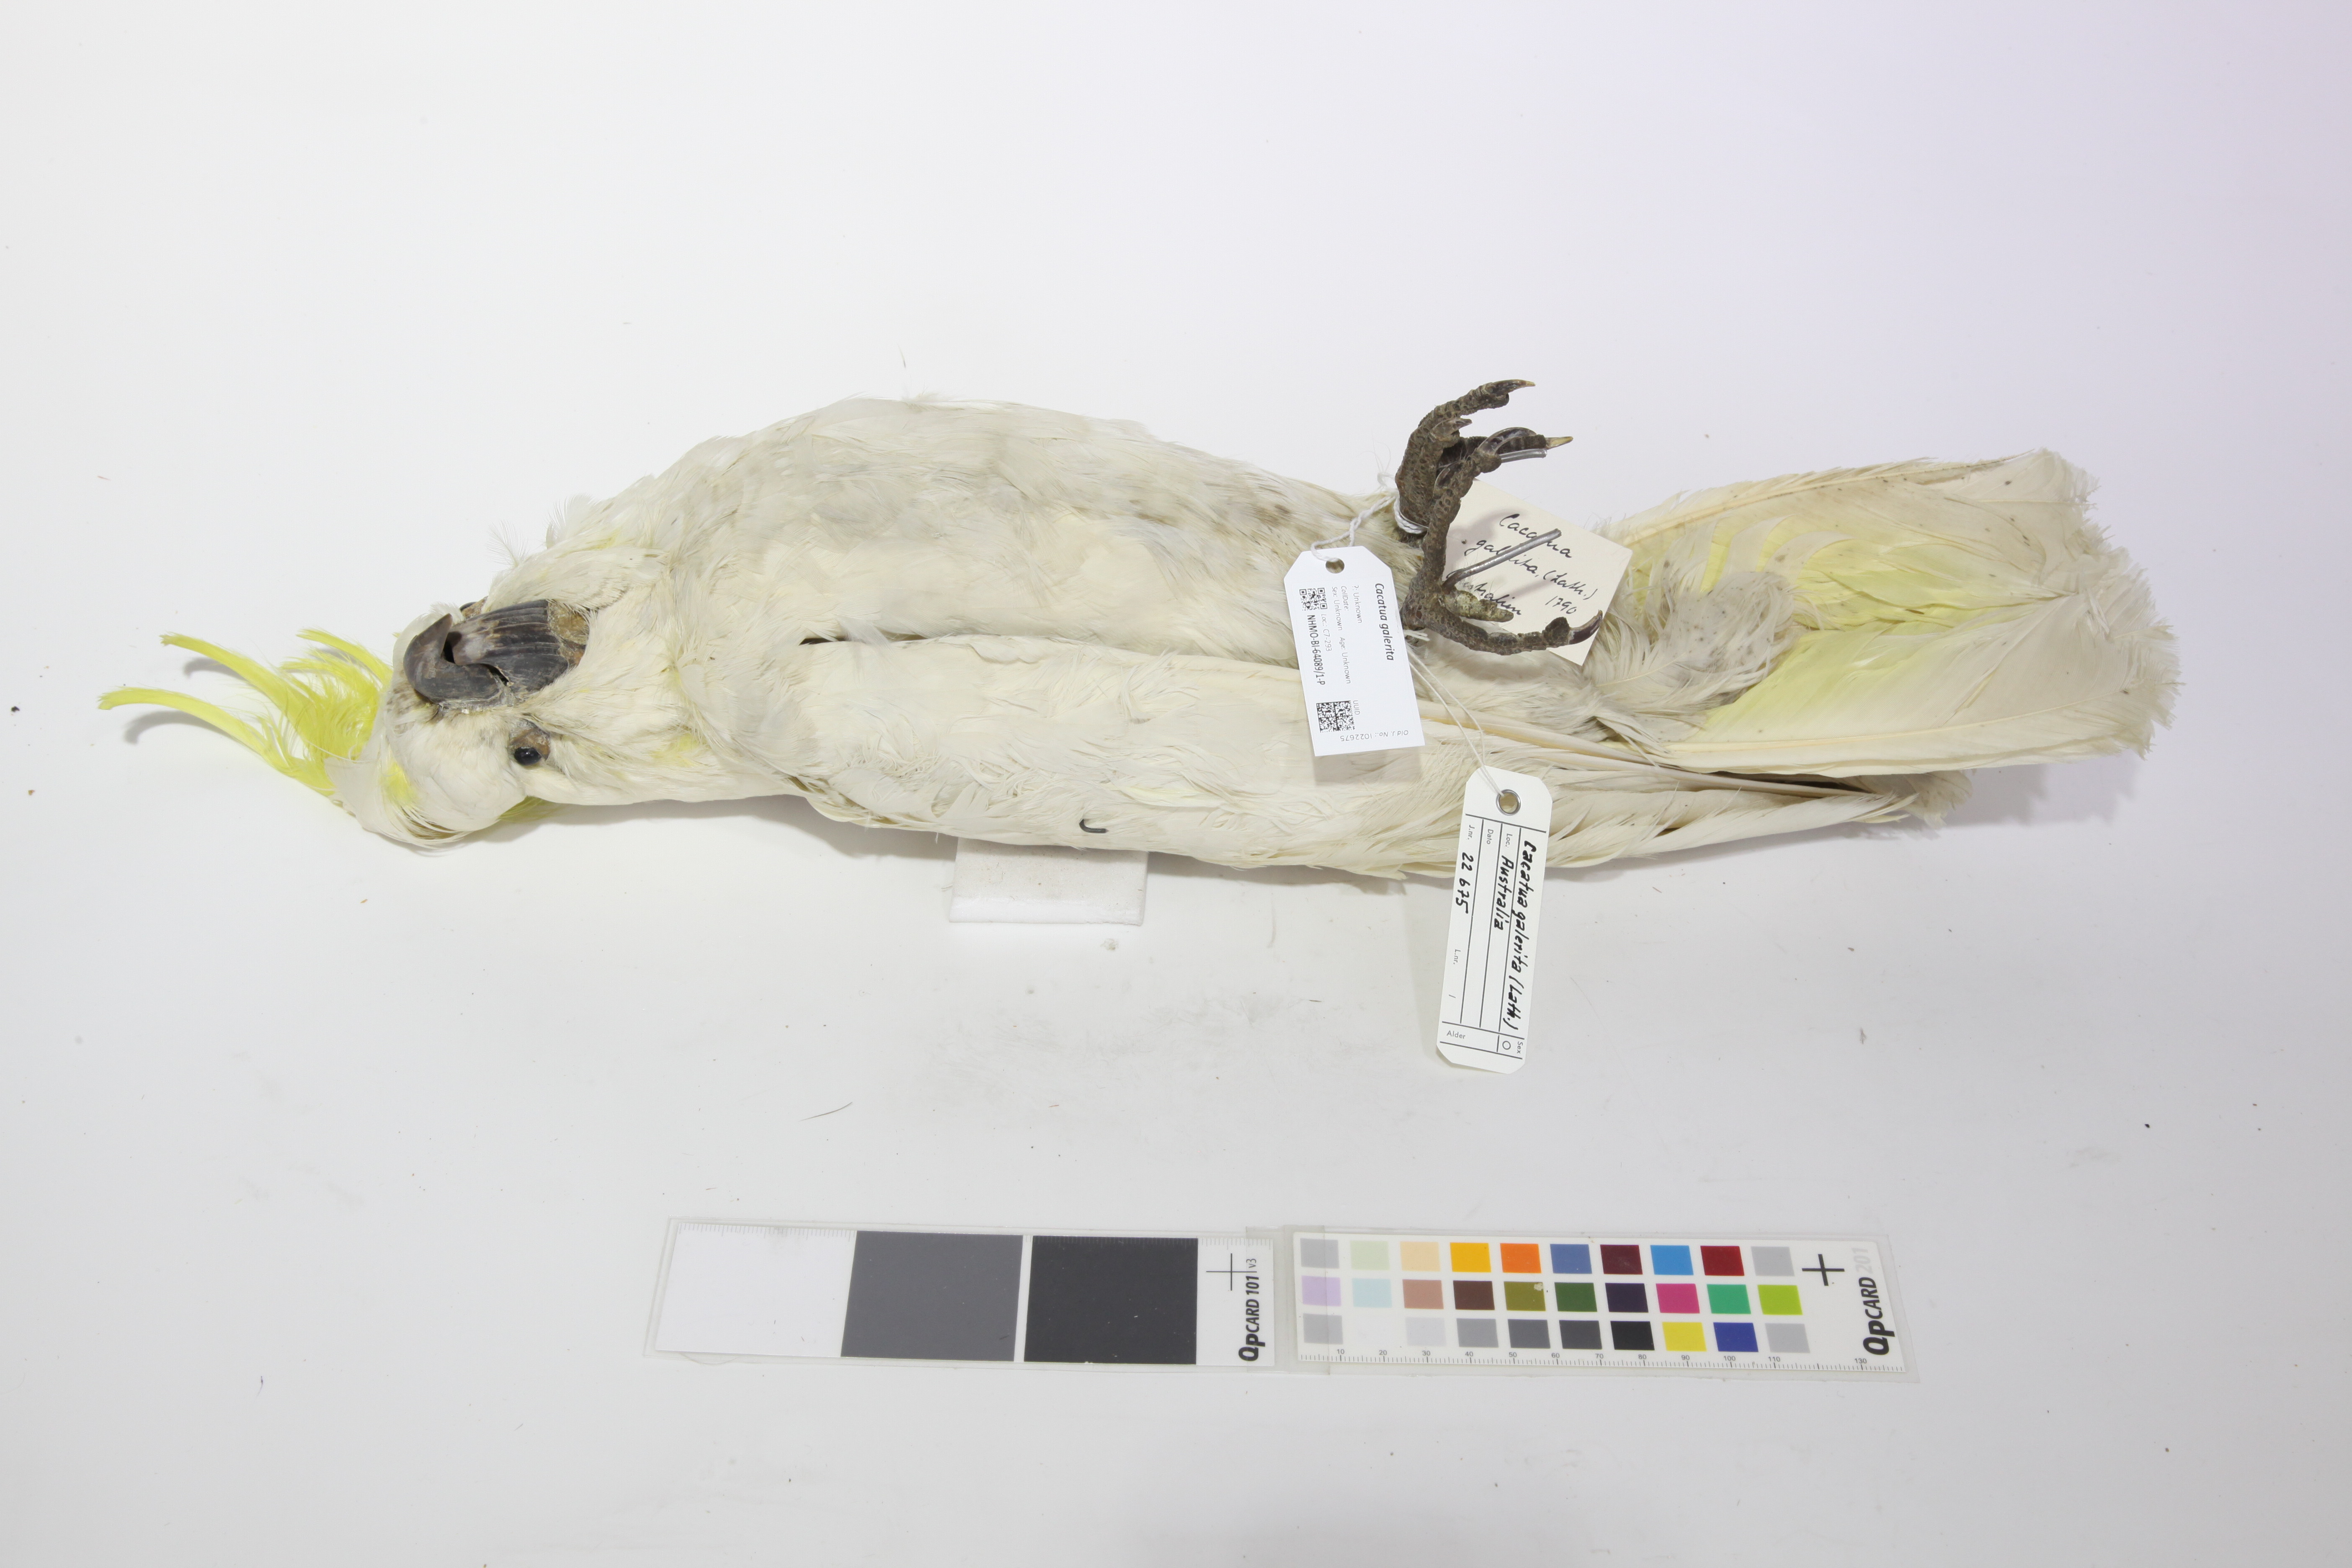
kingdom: Animalia
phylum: Chordata
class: Aves
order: Psittaciformes
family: Psittacidae
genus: Cacatua
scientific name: Cacatua galerita
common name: Sulphur-crested cockatoo
